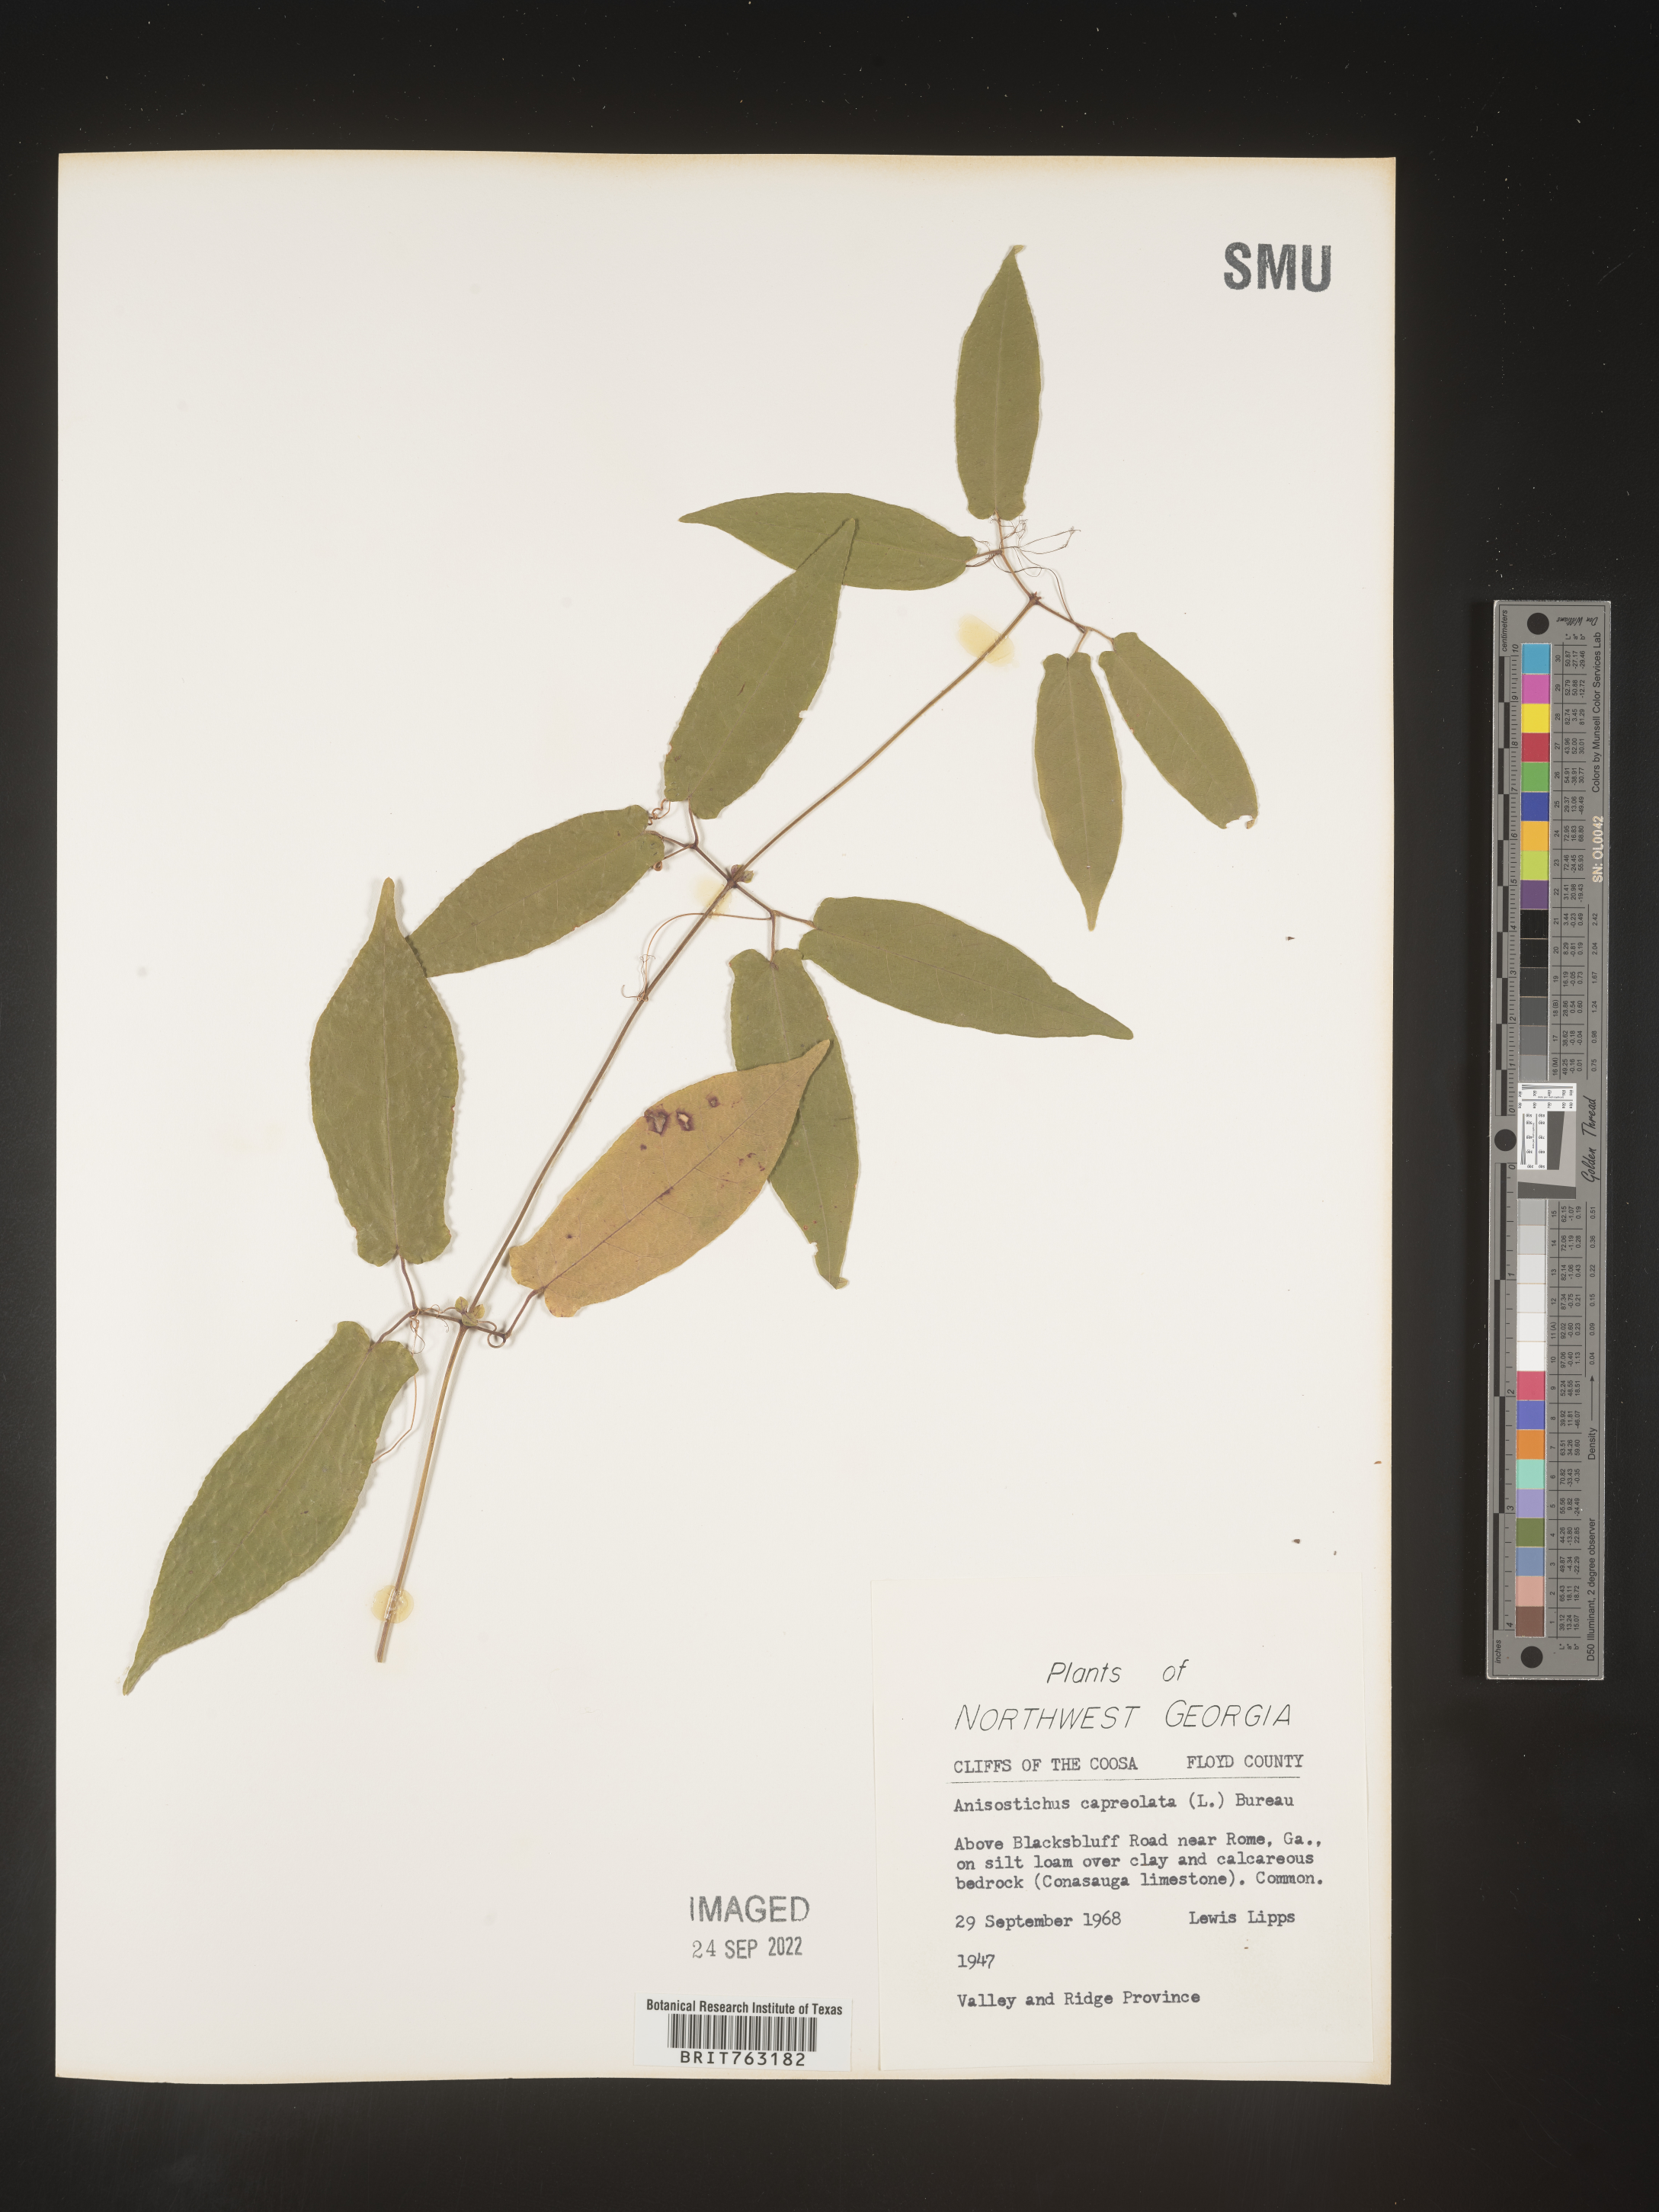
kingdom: Plantae
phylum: Tracheophyta
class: Magnoliopsida
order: Lamiales
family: Bignoniaceae
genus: Bignonia
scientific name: Bignonia capreolata
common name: Crossvine
